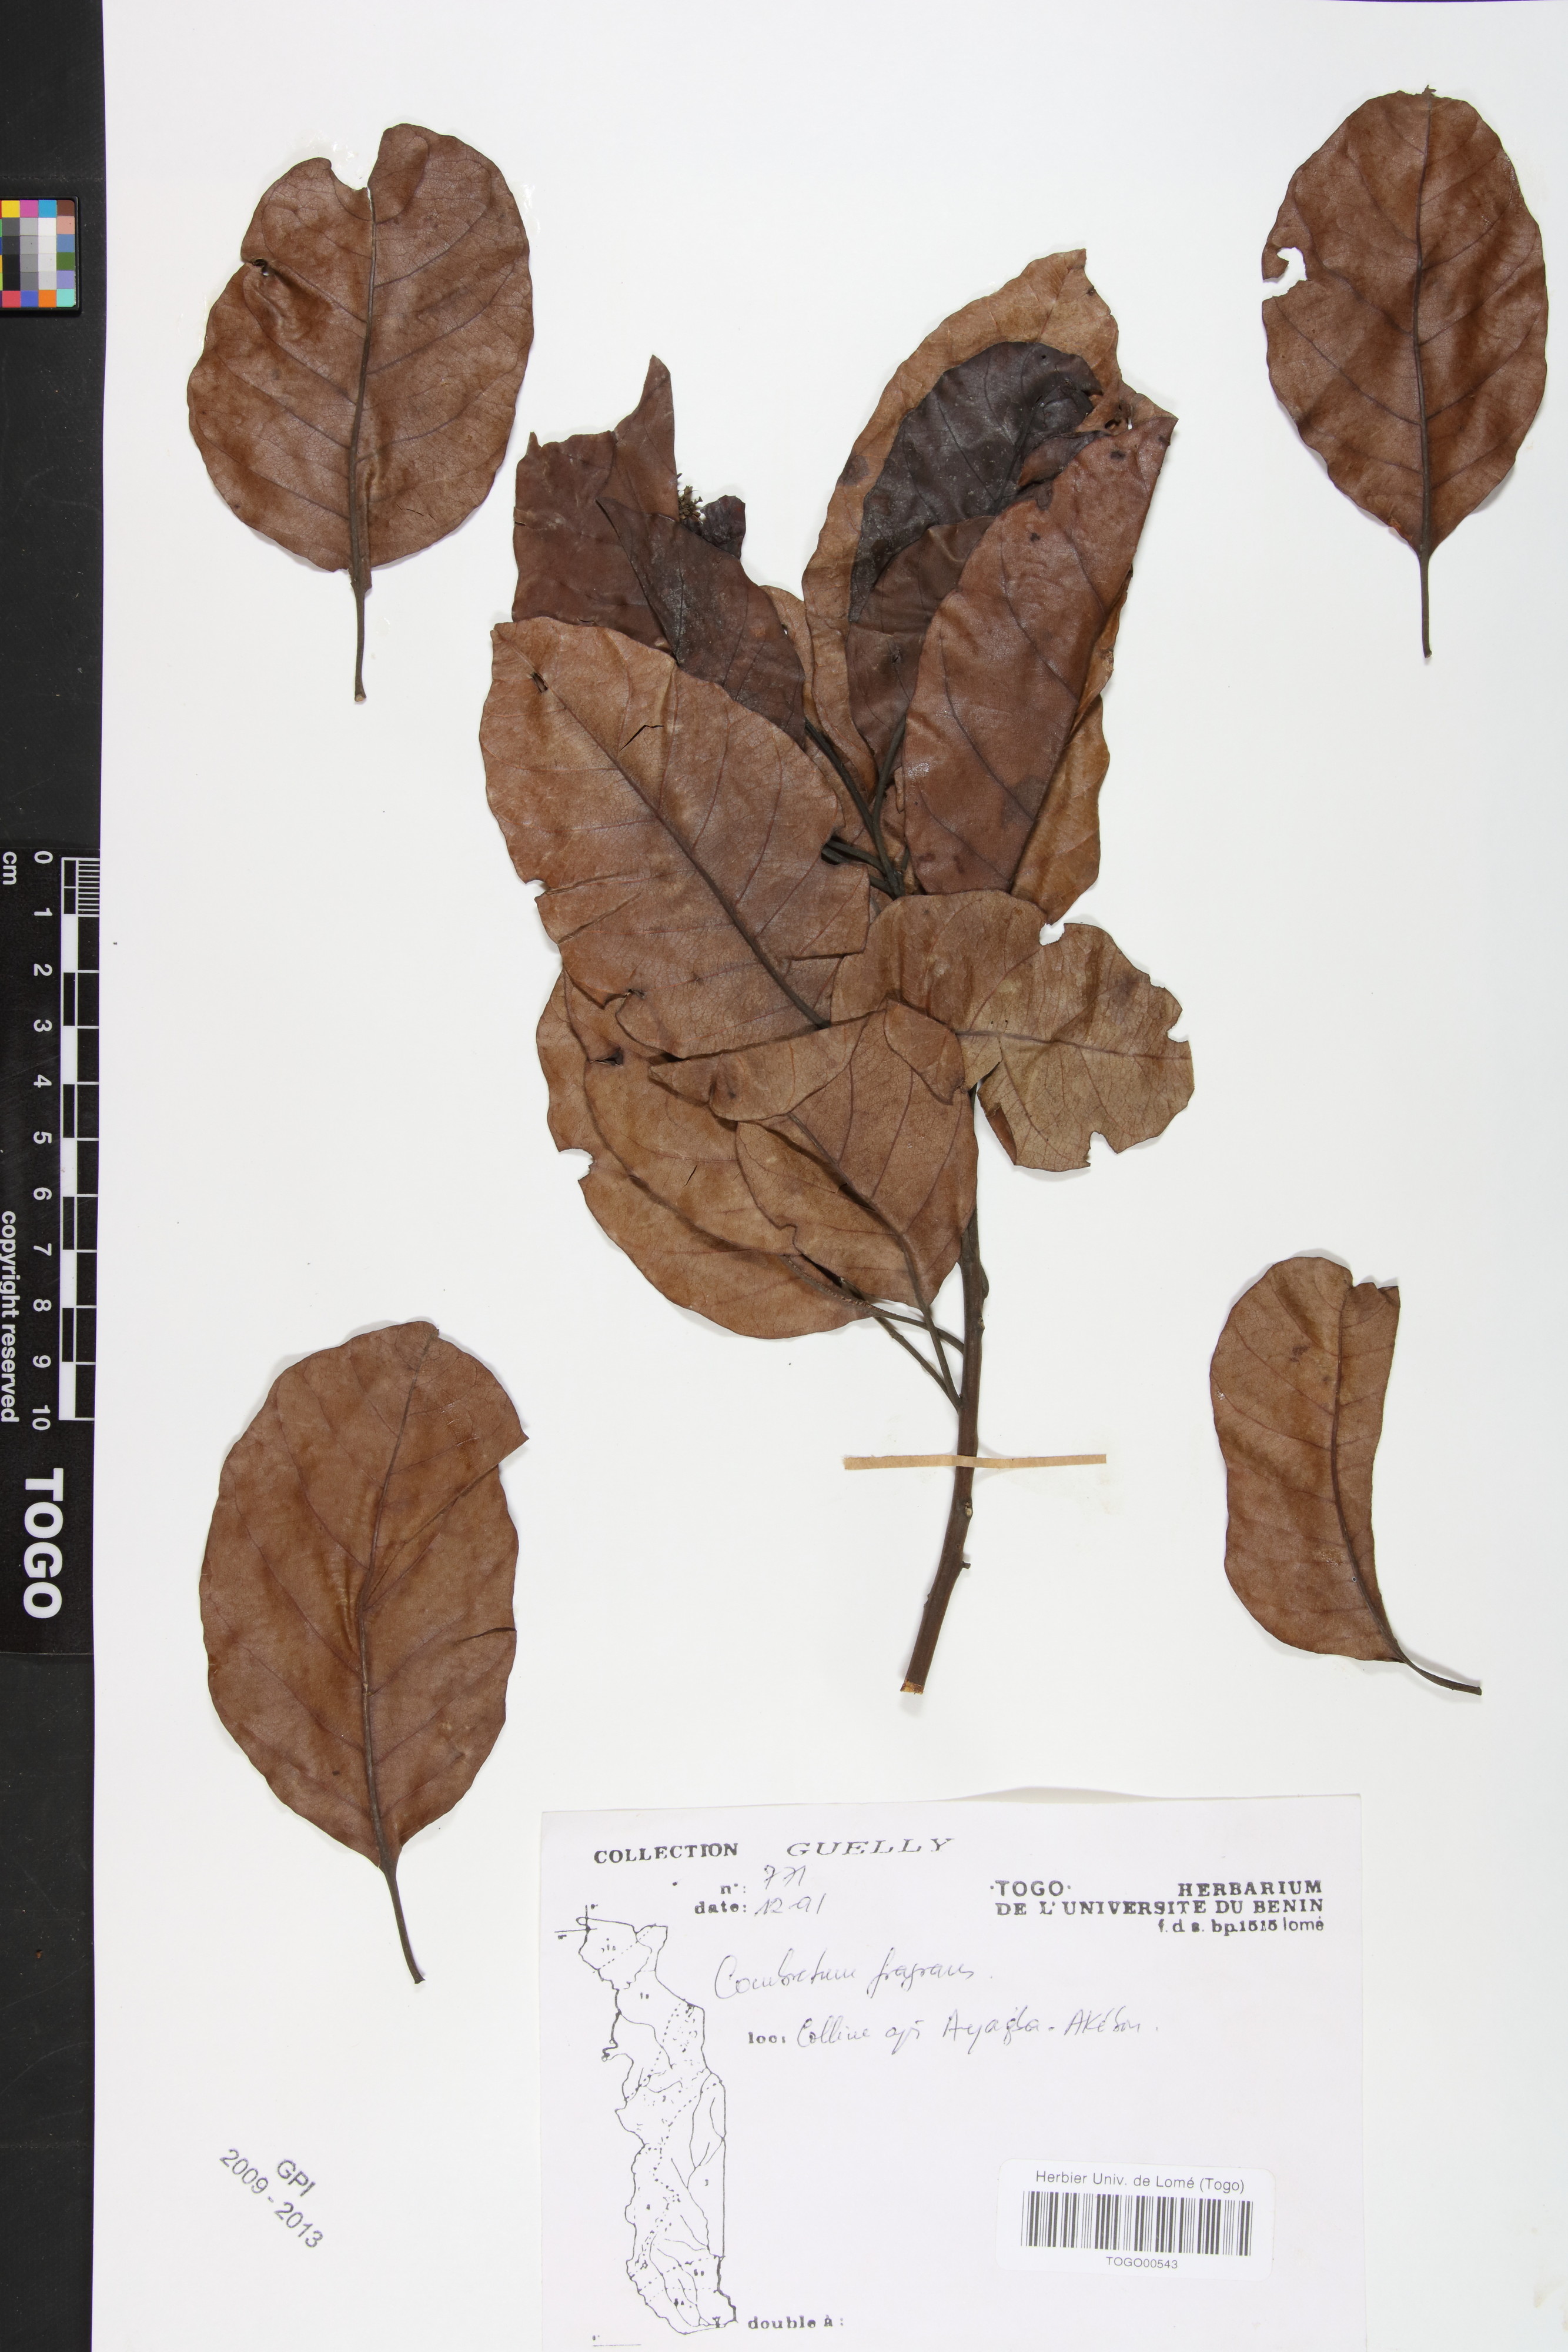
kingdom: Plantae
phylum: Tracheophyta
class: Magnoliopsida
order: Myrtales
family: Combretaceae
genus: Combretum
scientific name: Combretum adenogonium
